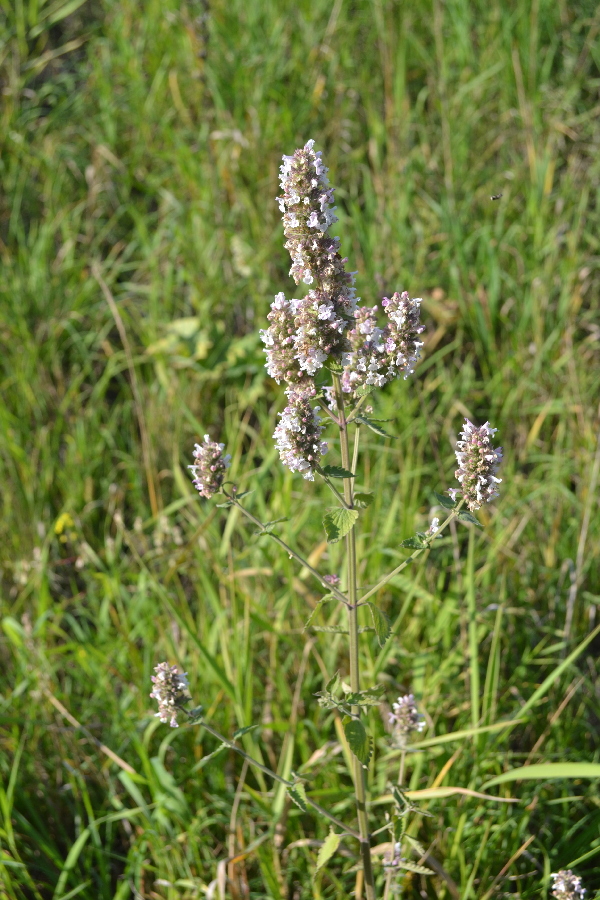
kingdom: Plantae
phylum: Tracheophyta
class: Magnoliopsida
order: Lamiales
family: Lamiaceae
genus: Melissa
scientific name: Melissa officinalis
